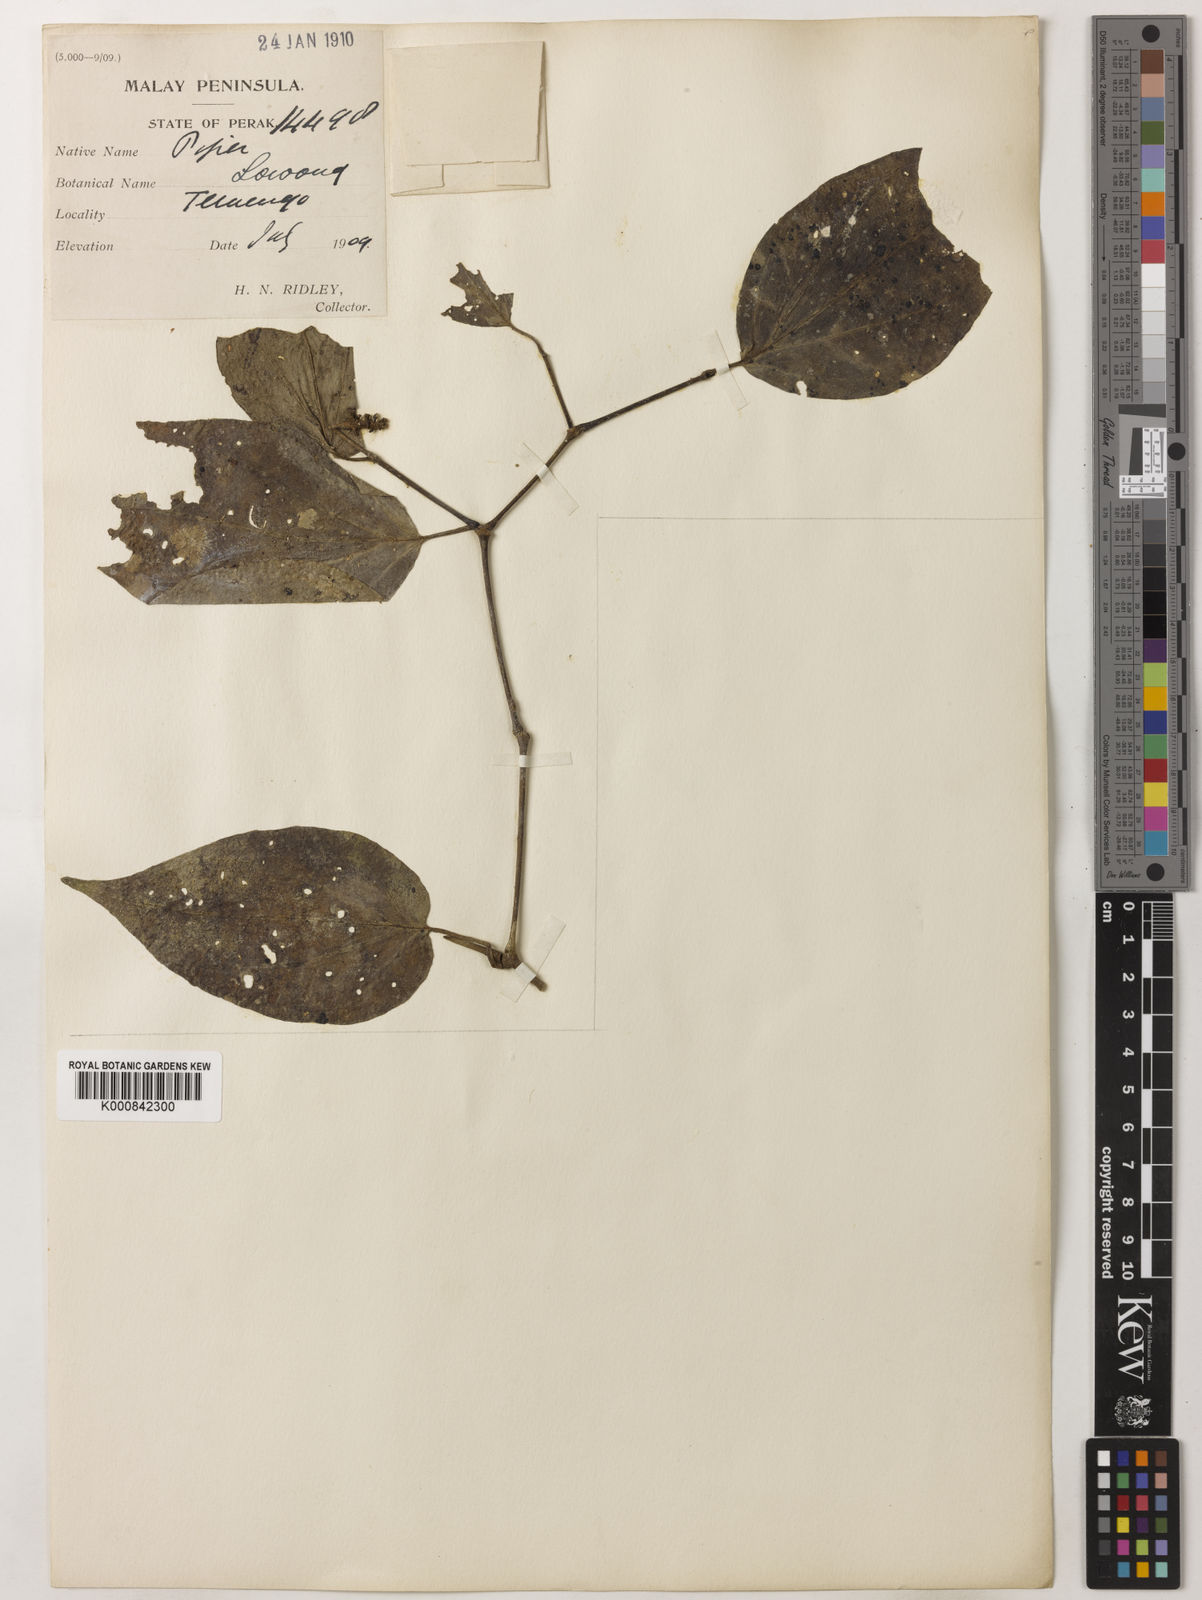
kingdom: Plantae
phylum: Tracheophyta
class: Magnoliopsida
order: Piperales
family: Piperaceae
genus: Piper
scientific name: Piper lanatum
